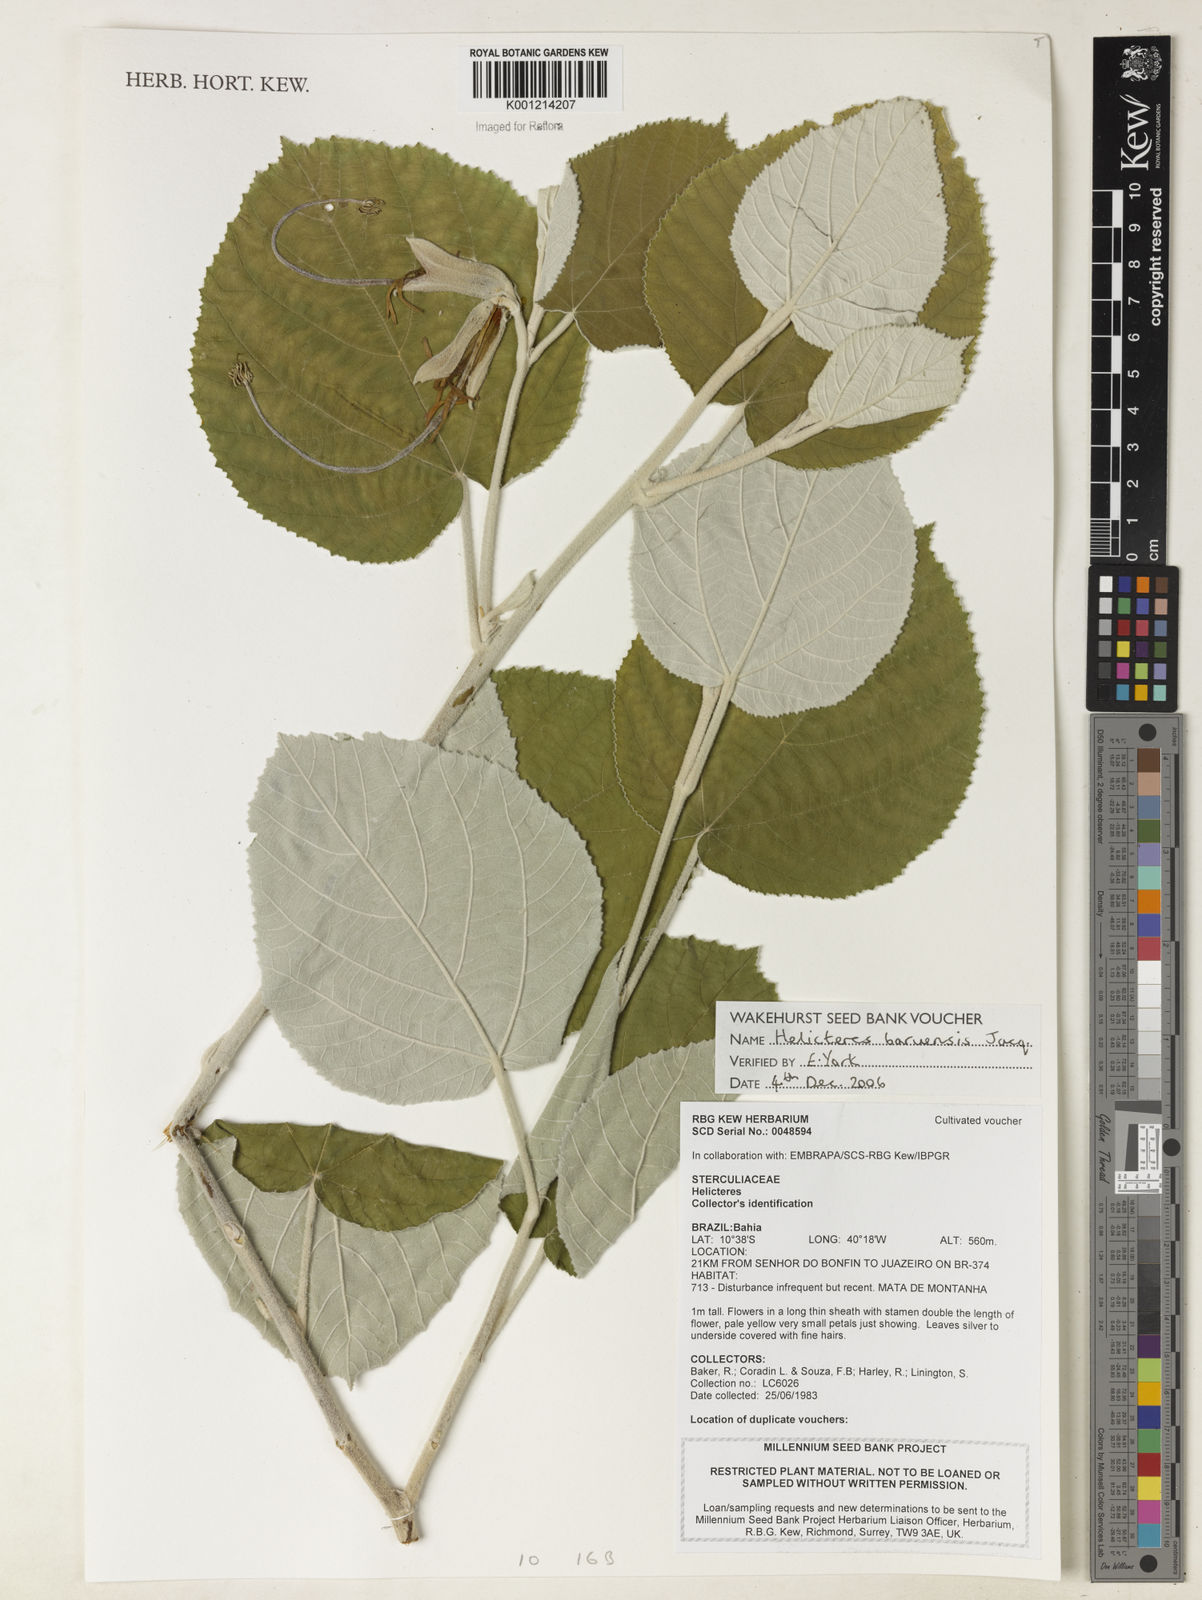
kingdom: Plantae
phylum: Tracheophyta
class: Magnoliopsida
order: Malvales
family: Malvaceae
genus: Helicteres
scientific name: Helicteres baruensis
